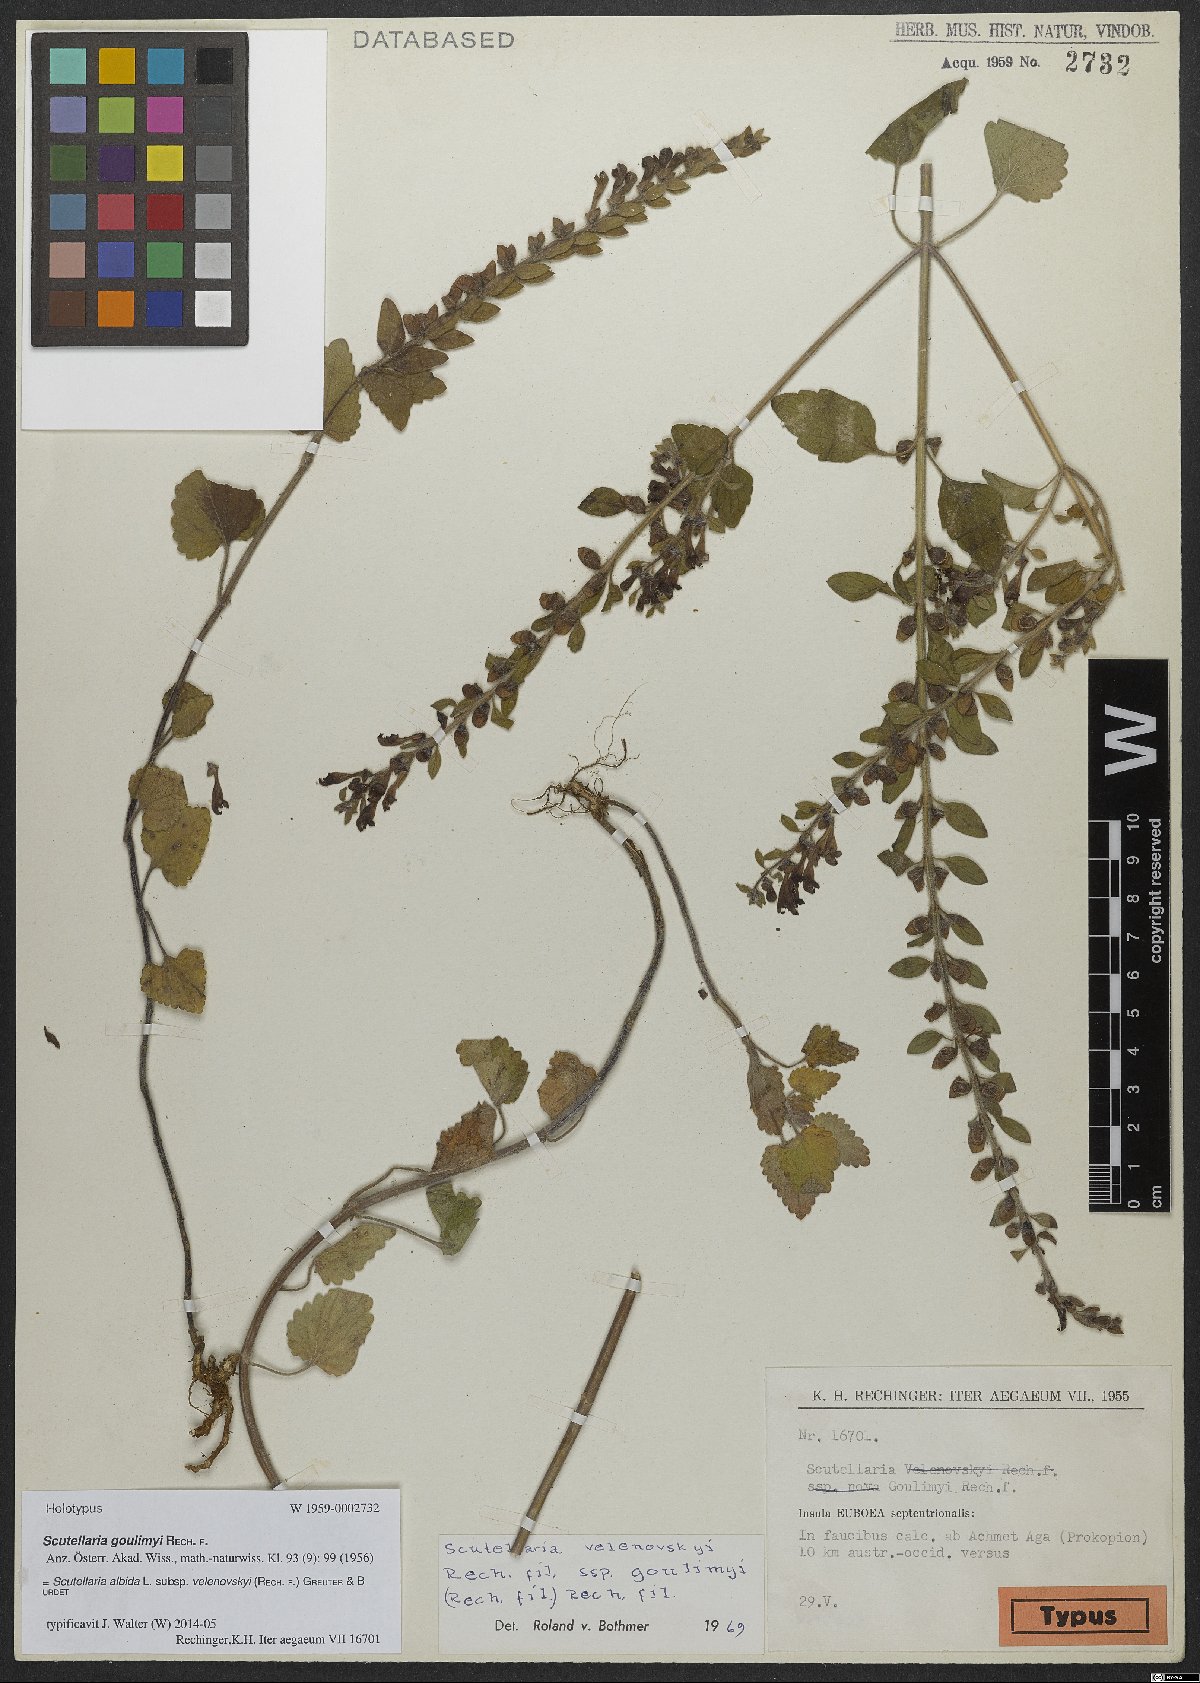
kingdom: Plantae
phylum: Tracheophyta
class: Magnoliopsida
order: Lamiales
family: Lamiaceae
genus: Scutellaria
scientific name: Scutellaria albida
